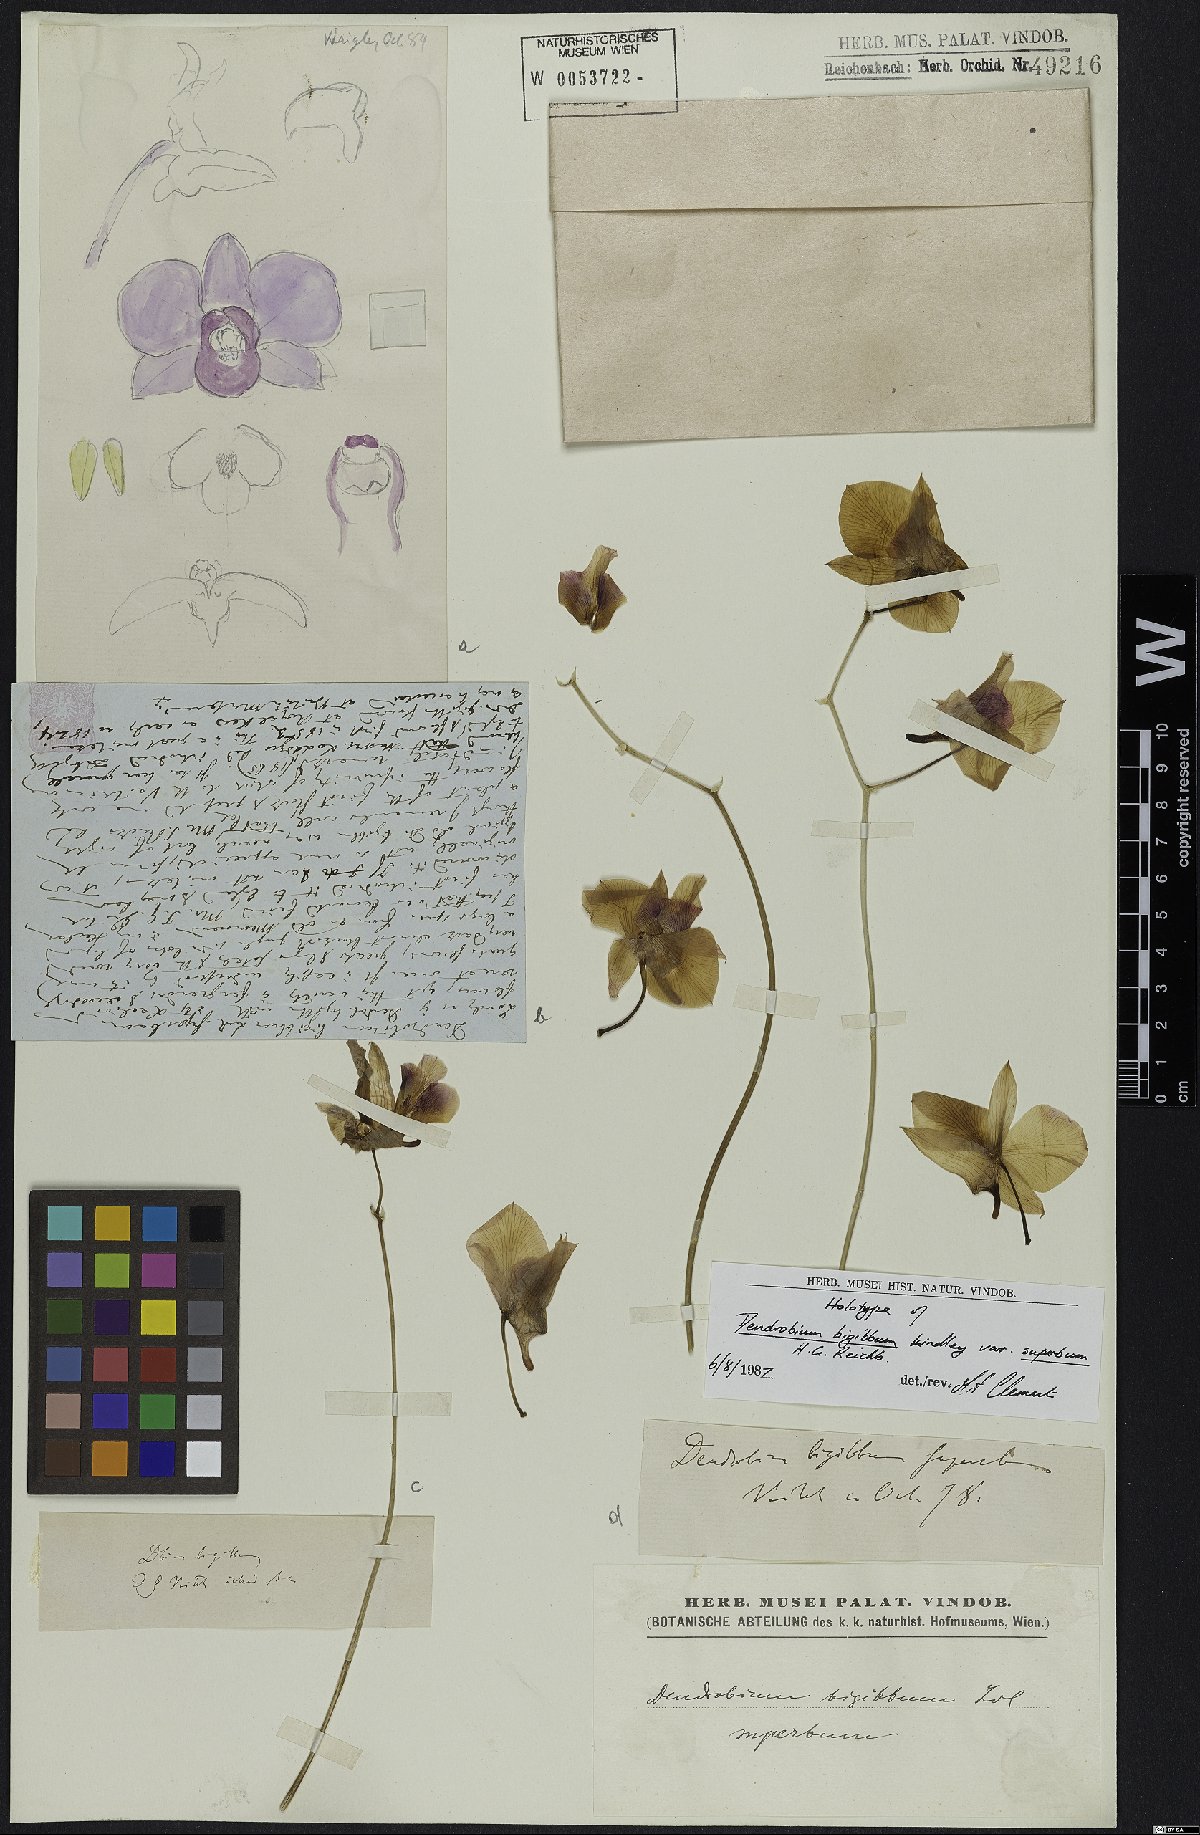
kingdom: Plantae
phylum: Tracheophyta
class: Liliopsida
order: Asparagales
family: Orchidaceae
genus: Dendrobium
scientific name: Dendrobium bigibbum
